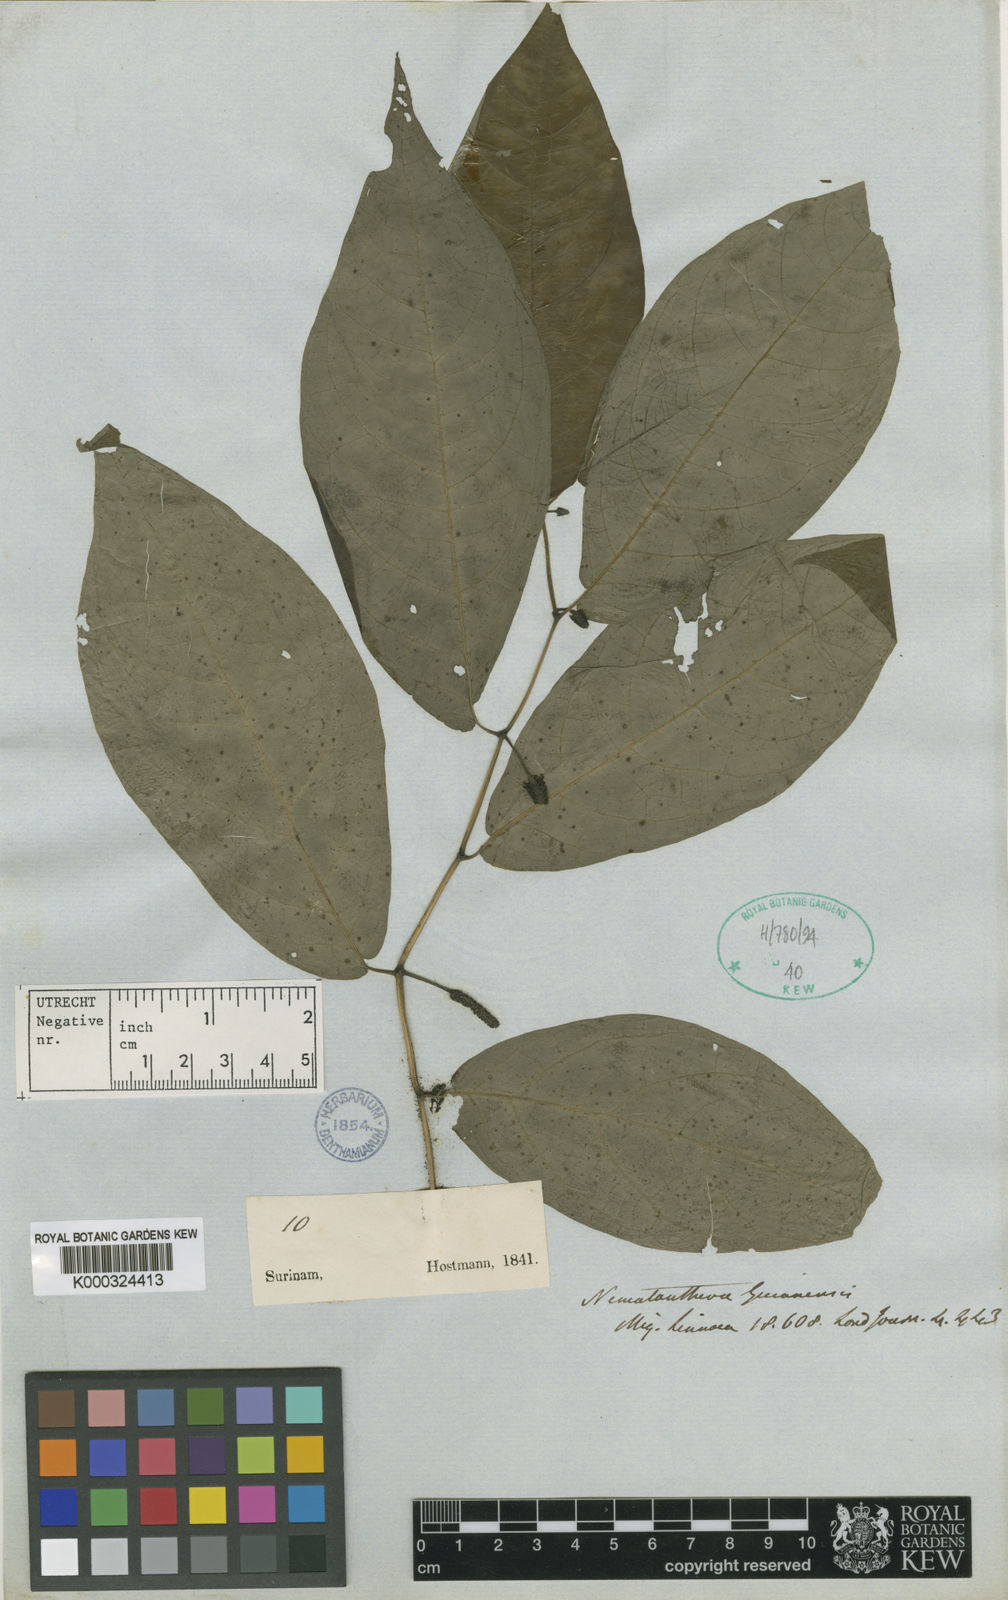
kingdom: Plantae
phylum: Tracheophyta
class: Magnoliopsida
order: Piperales
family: Piperaceae
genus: Piper
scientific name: Piper nematanthera
